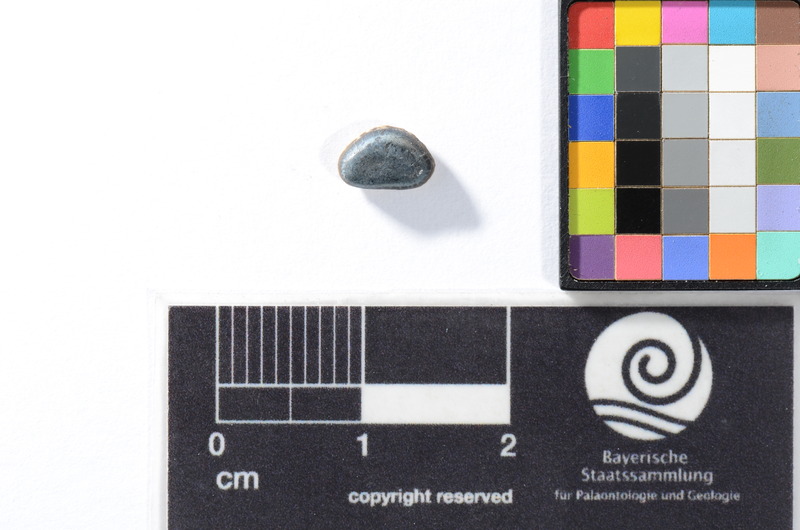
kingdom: Animalia
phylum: Chordata
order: Anguilliformes
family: Phyllodontidae
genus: Phyllodus
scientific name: Phyllodus
